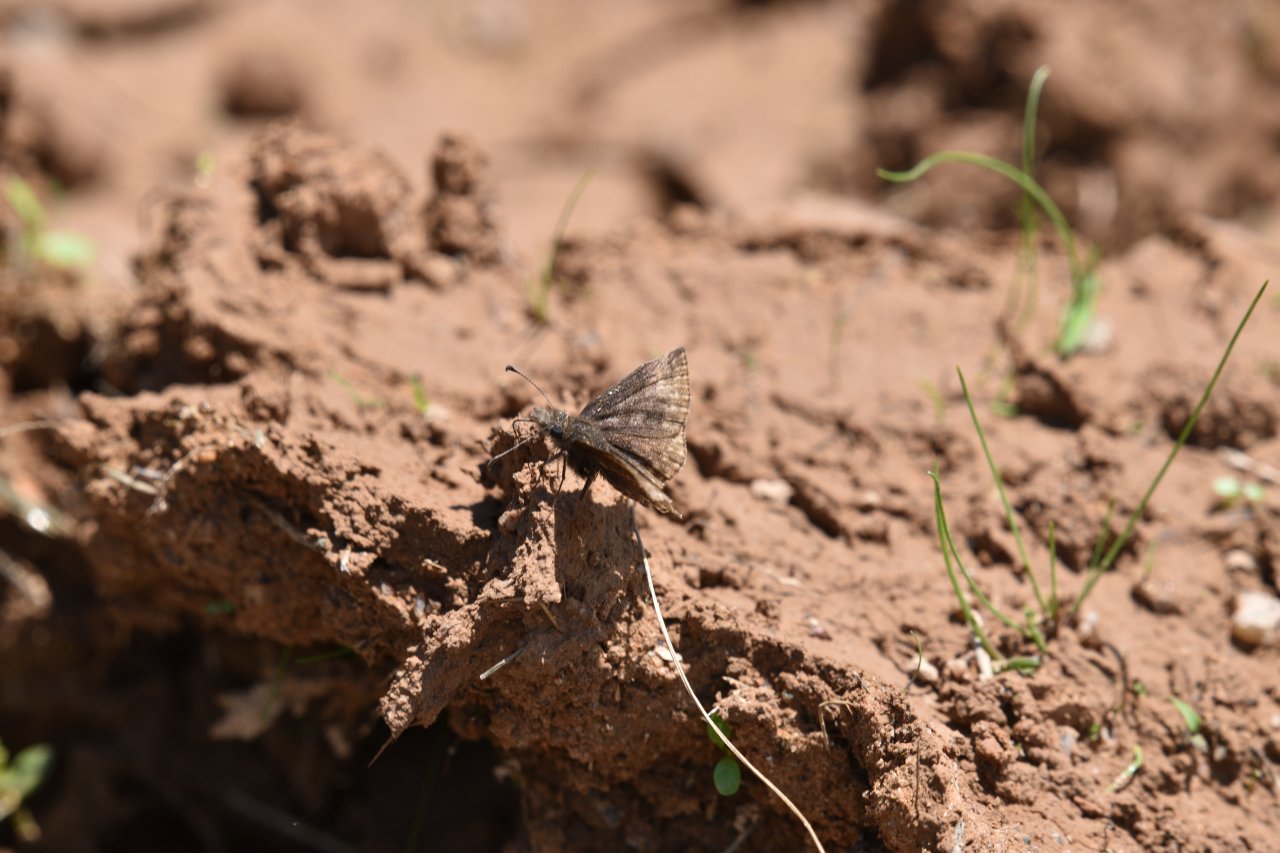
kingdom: Animalia
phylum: Arthropoda
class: Insecta
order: Lepidoptera
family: Hesperiidae
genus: Erynnis
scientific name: Erynnis
